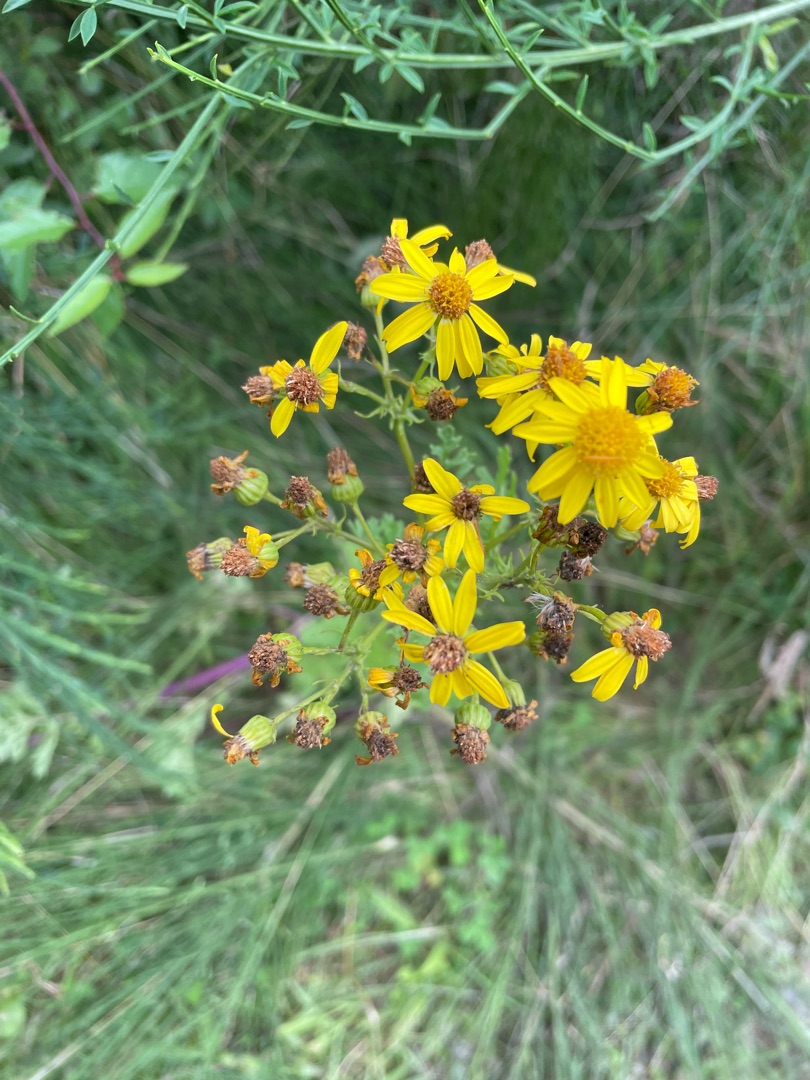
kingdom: Plantae
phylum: Tracheophyta
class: Magnoliopsida
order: Asterales
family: Asteraceae
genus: Jacobaea
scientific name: Jacobaea vulgaris
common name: Eng-brandbæger
